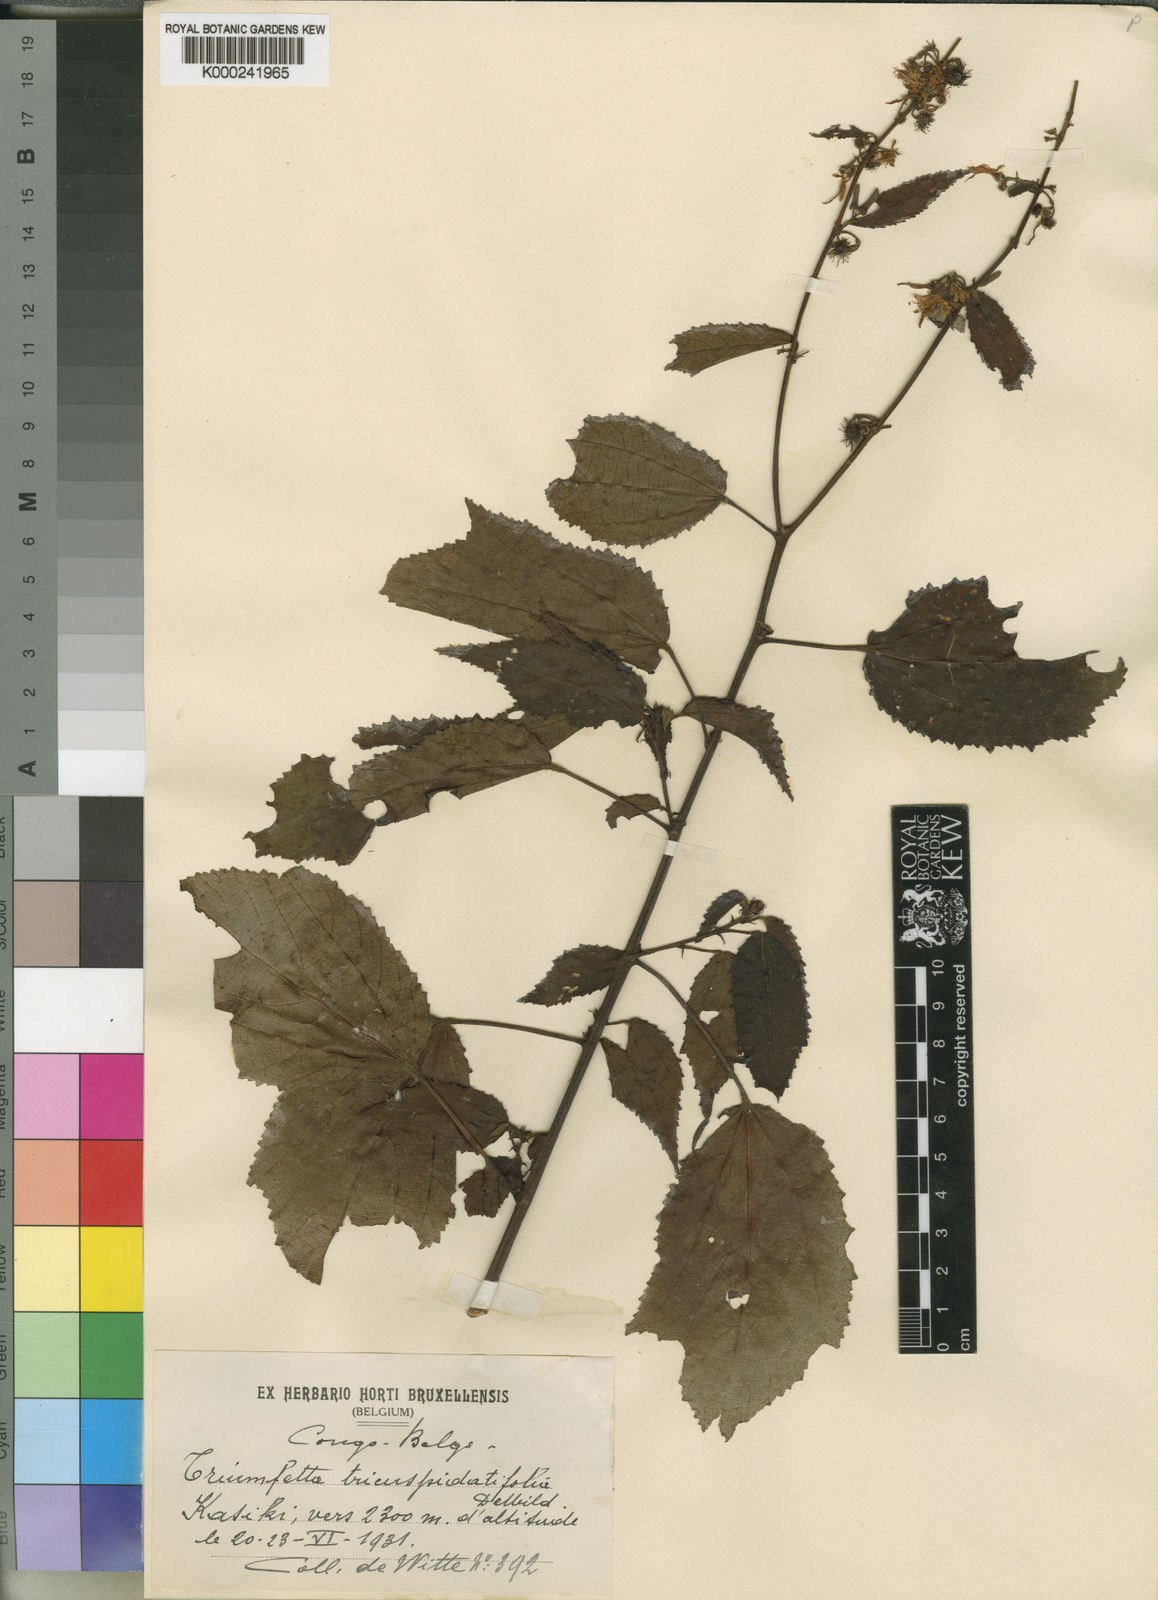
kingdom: Plantae
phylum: Tracheophyta
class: Magnoliopsida
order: Malvales
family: Malvaceae
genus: Triumfetta
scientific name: Triumfetta cordifolia
